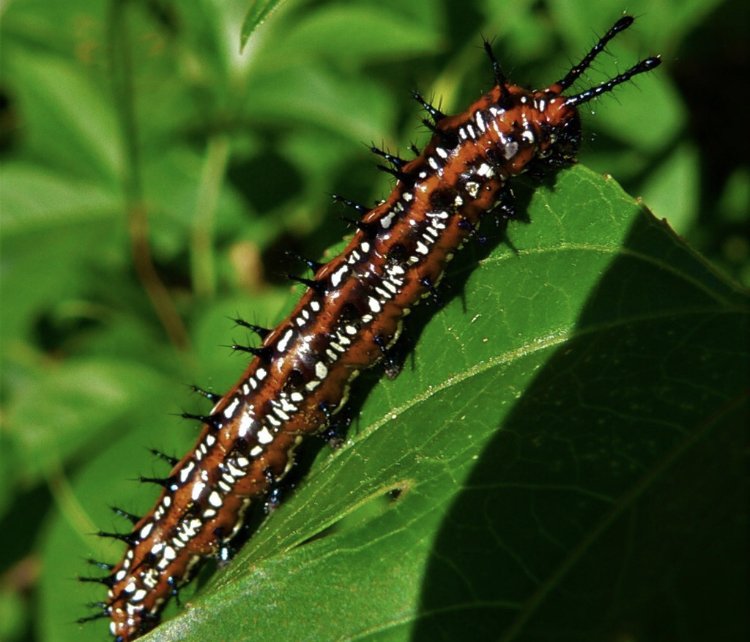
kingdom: Animalia
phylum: Arthropoda
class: Insecta
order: Lepidoptera
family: Nymphalidae
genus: Euptoieta
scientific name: Euptoieta claudia
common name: Variegated Fritillary
